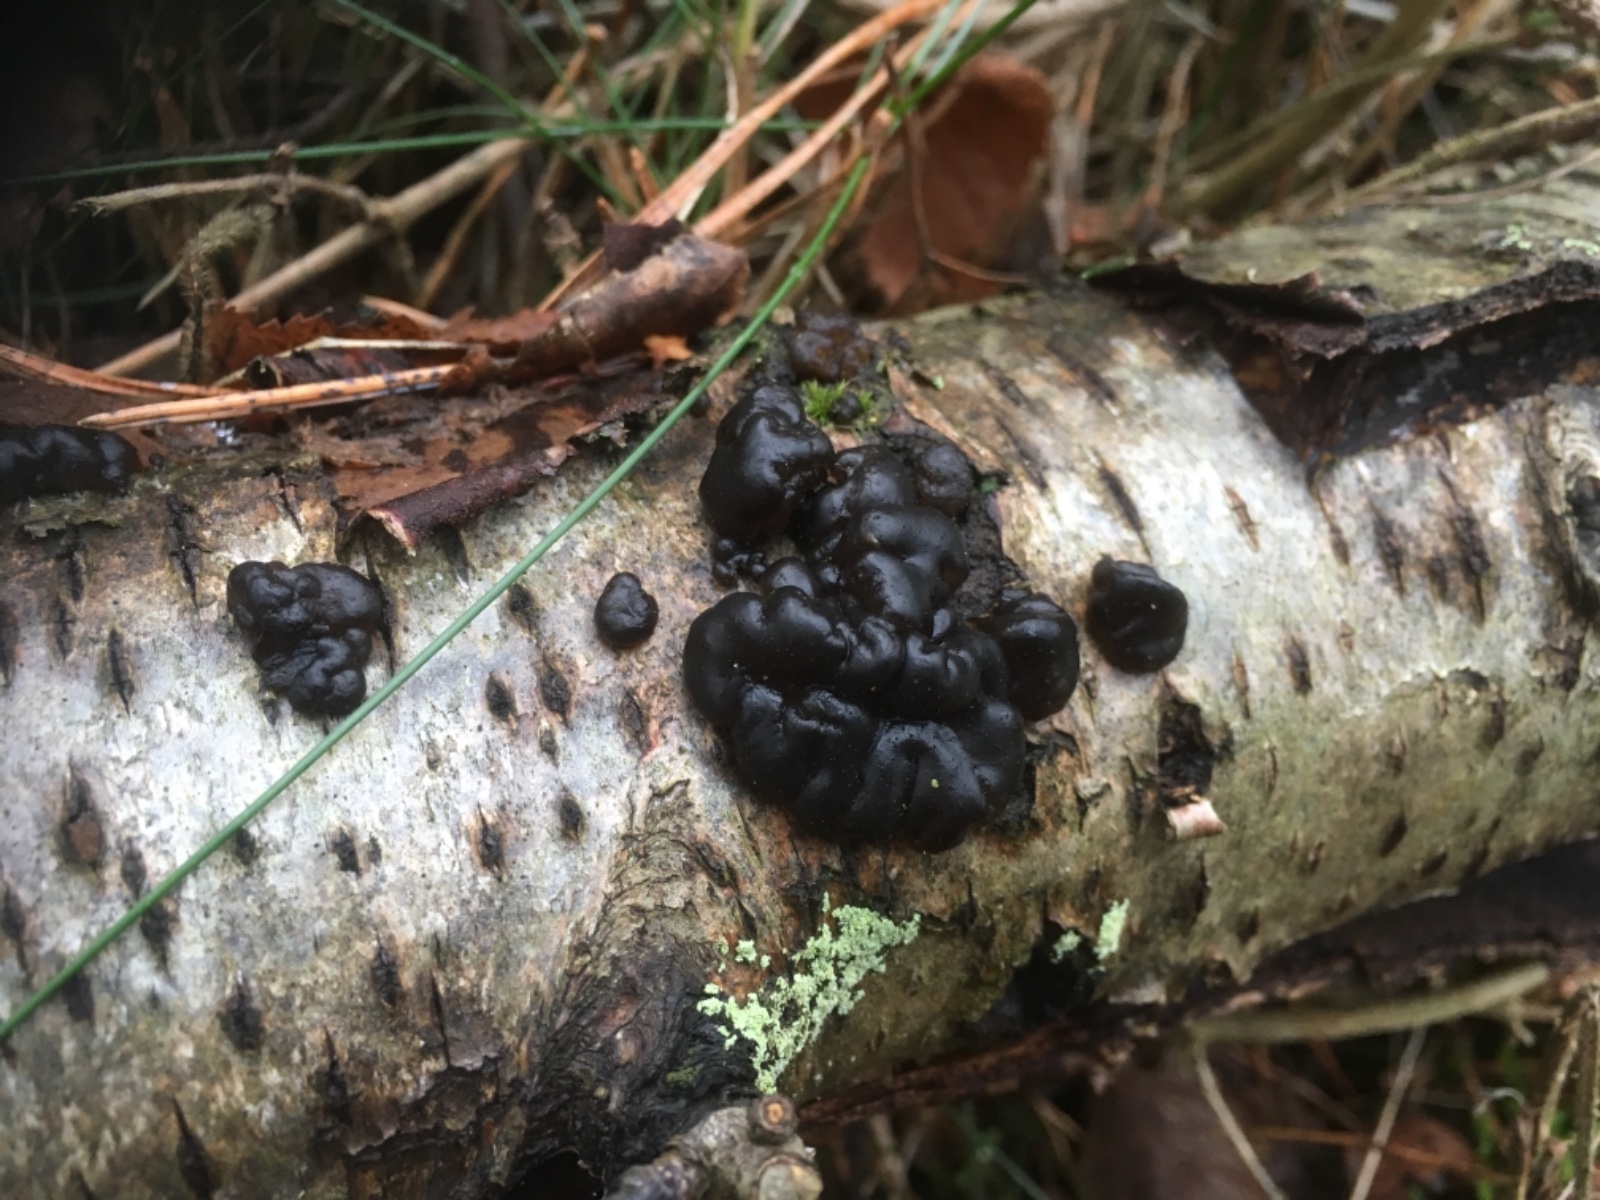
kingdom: Fungi
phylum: Basidiomycota
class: Agaricomycetes
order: Auriculariales
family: Auriculariaceae
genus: Exidia
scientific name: Exidia nigricans
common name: almindelig bævretop
